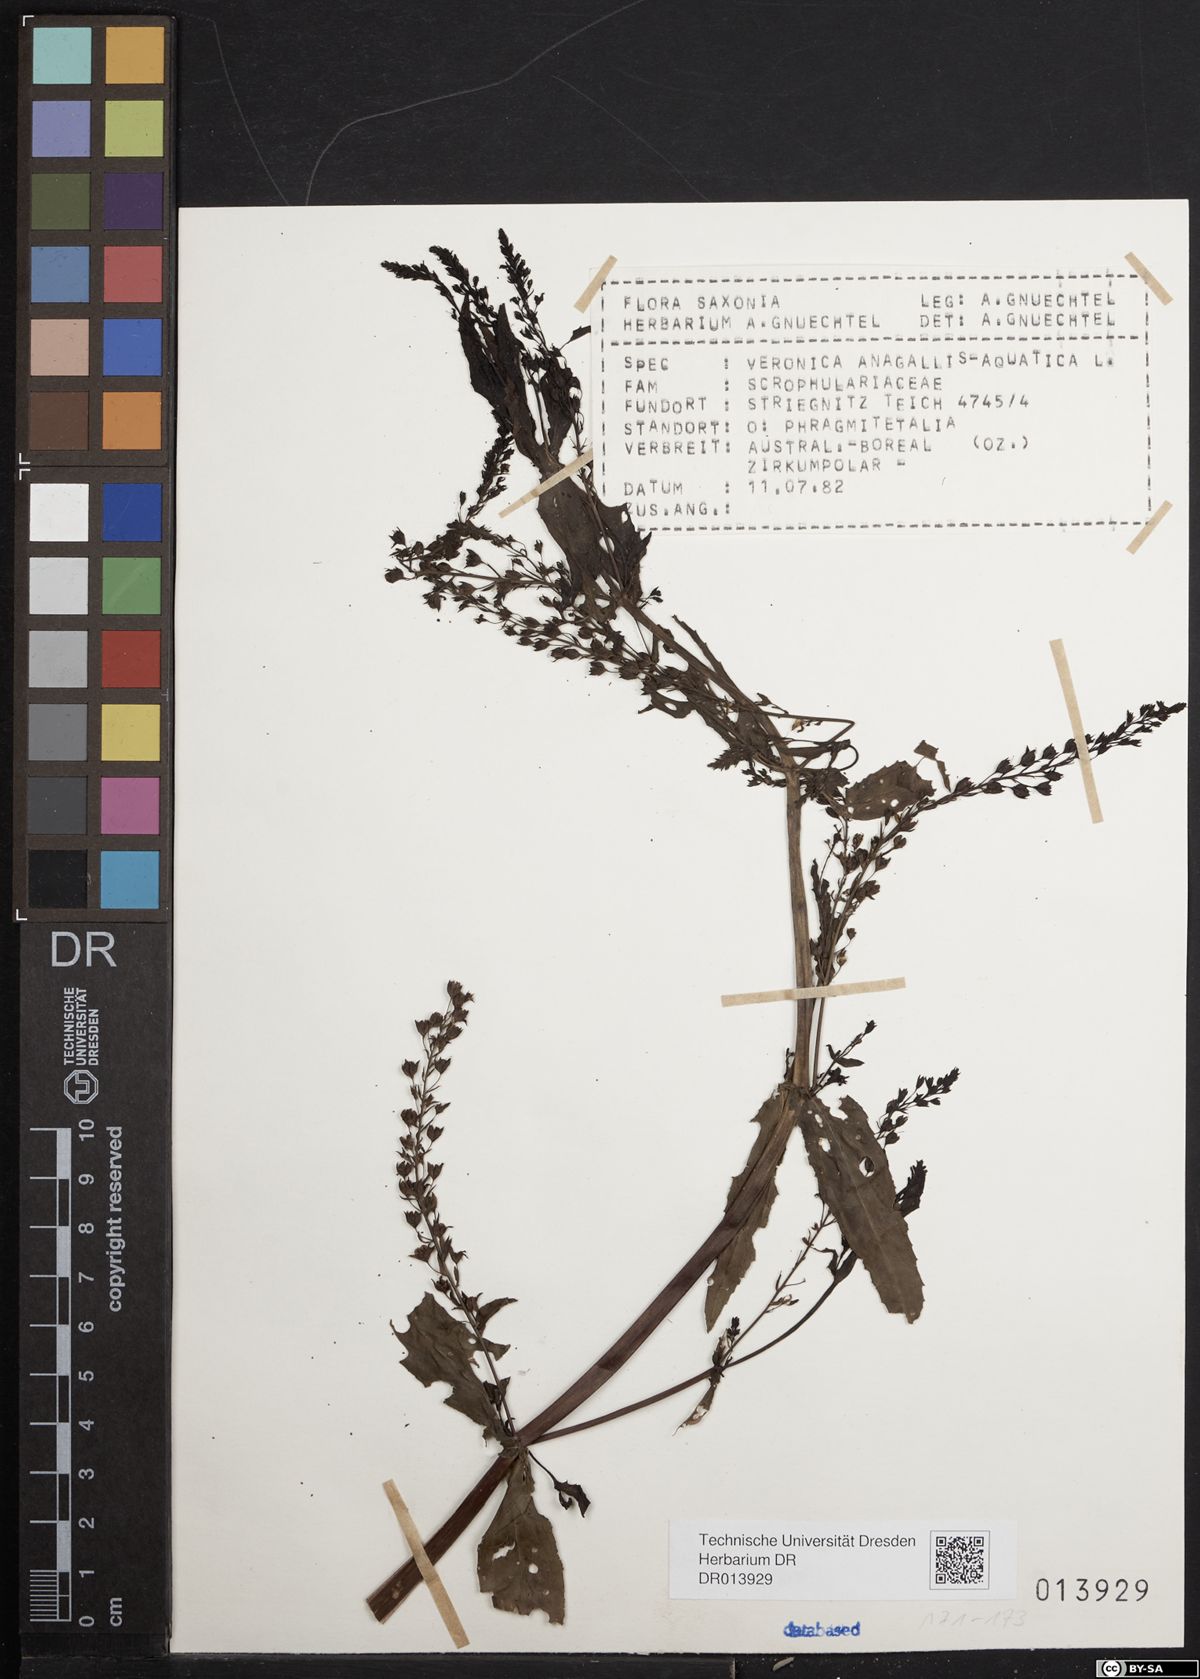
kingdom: Plantae
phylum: Tracheophyta
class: Magnoliopsida
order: Lamiales
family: Plantaginaceae
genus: Veronica
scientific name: Veronica anagallis-aquatica
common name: Water speedwell
